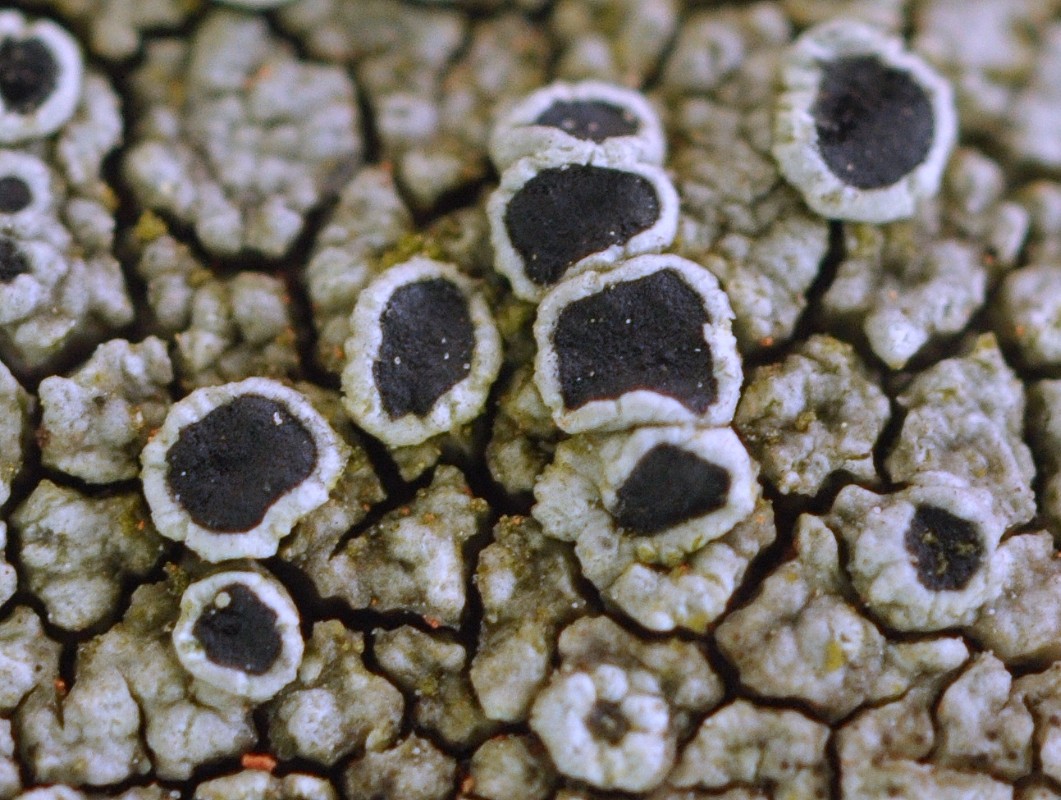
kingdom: Fungi
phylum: Ascomycota
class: Lecanoromycetes
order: Lecanorales
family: Tephromelataceae
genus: Tephromela
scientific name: Tephromela atra
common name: sortfrugtet kantskivelav
